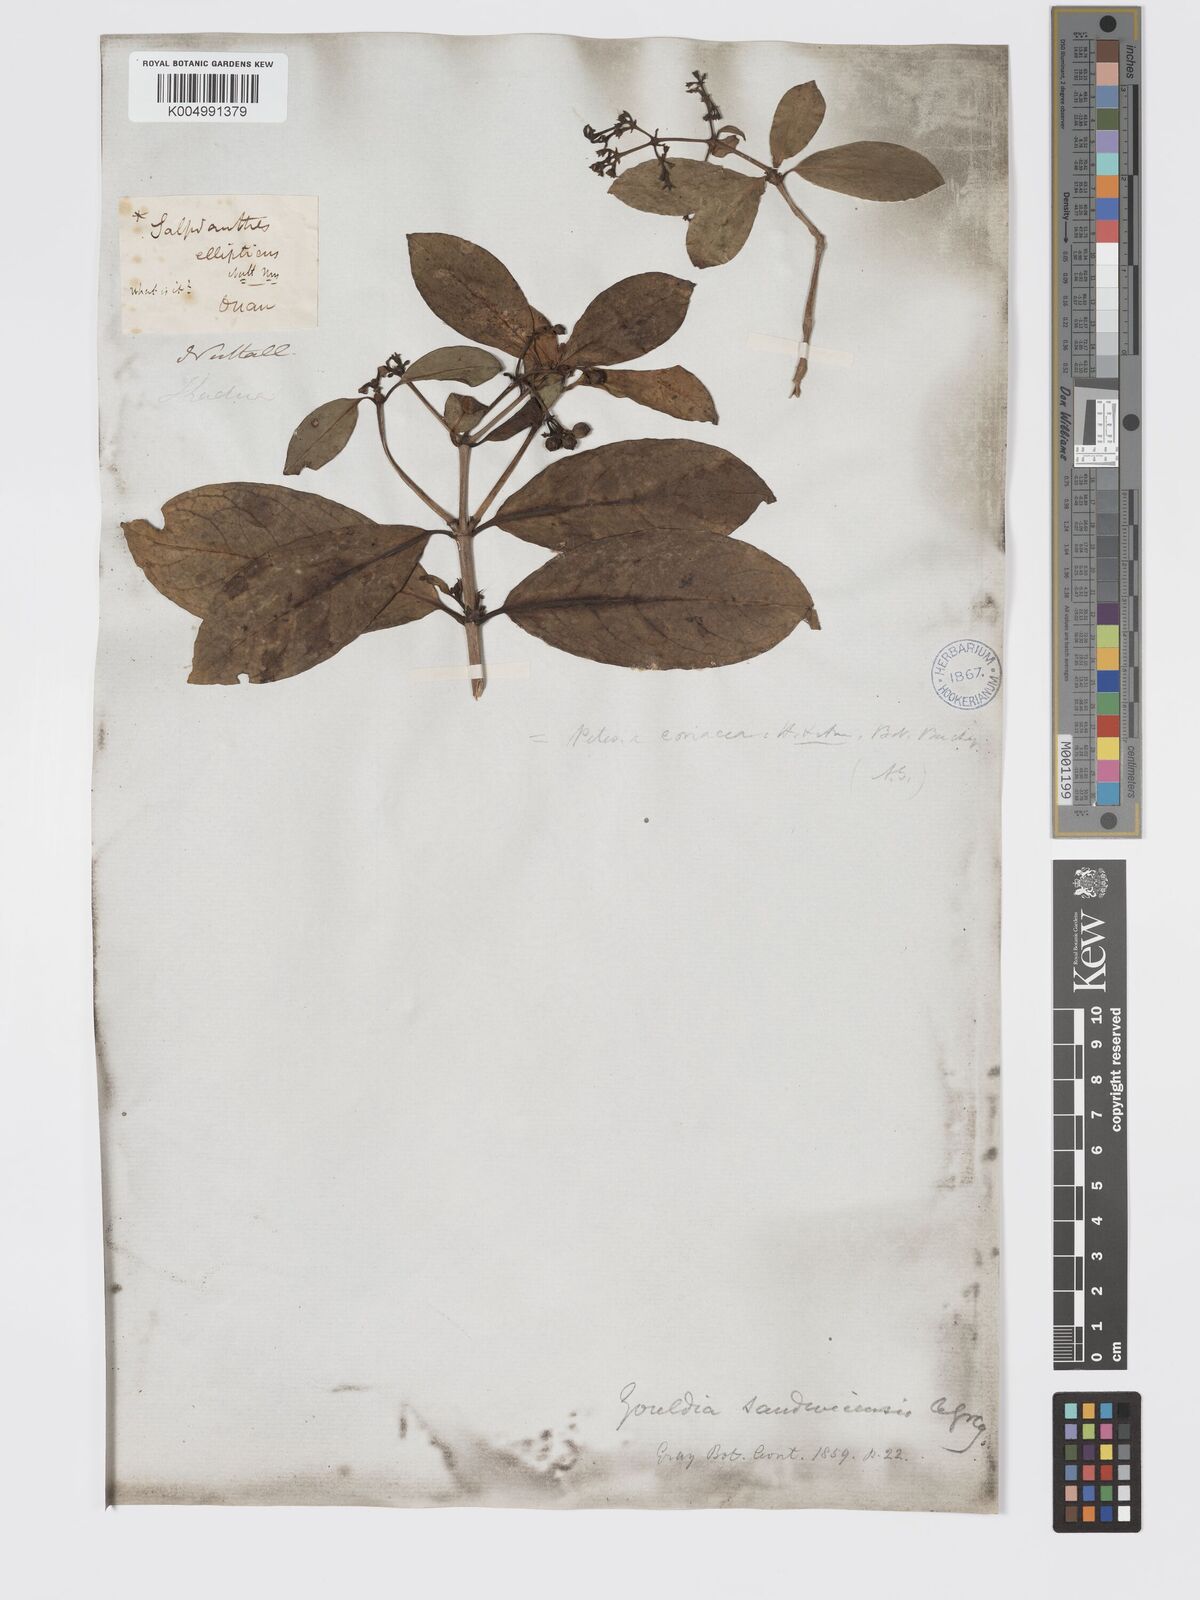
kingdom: Plantae
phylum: Tracheophyta
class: Magnoliopsida
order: Gentianales
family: Rubiaceae
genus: Kadua
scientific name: Kadua coriacea
